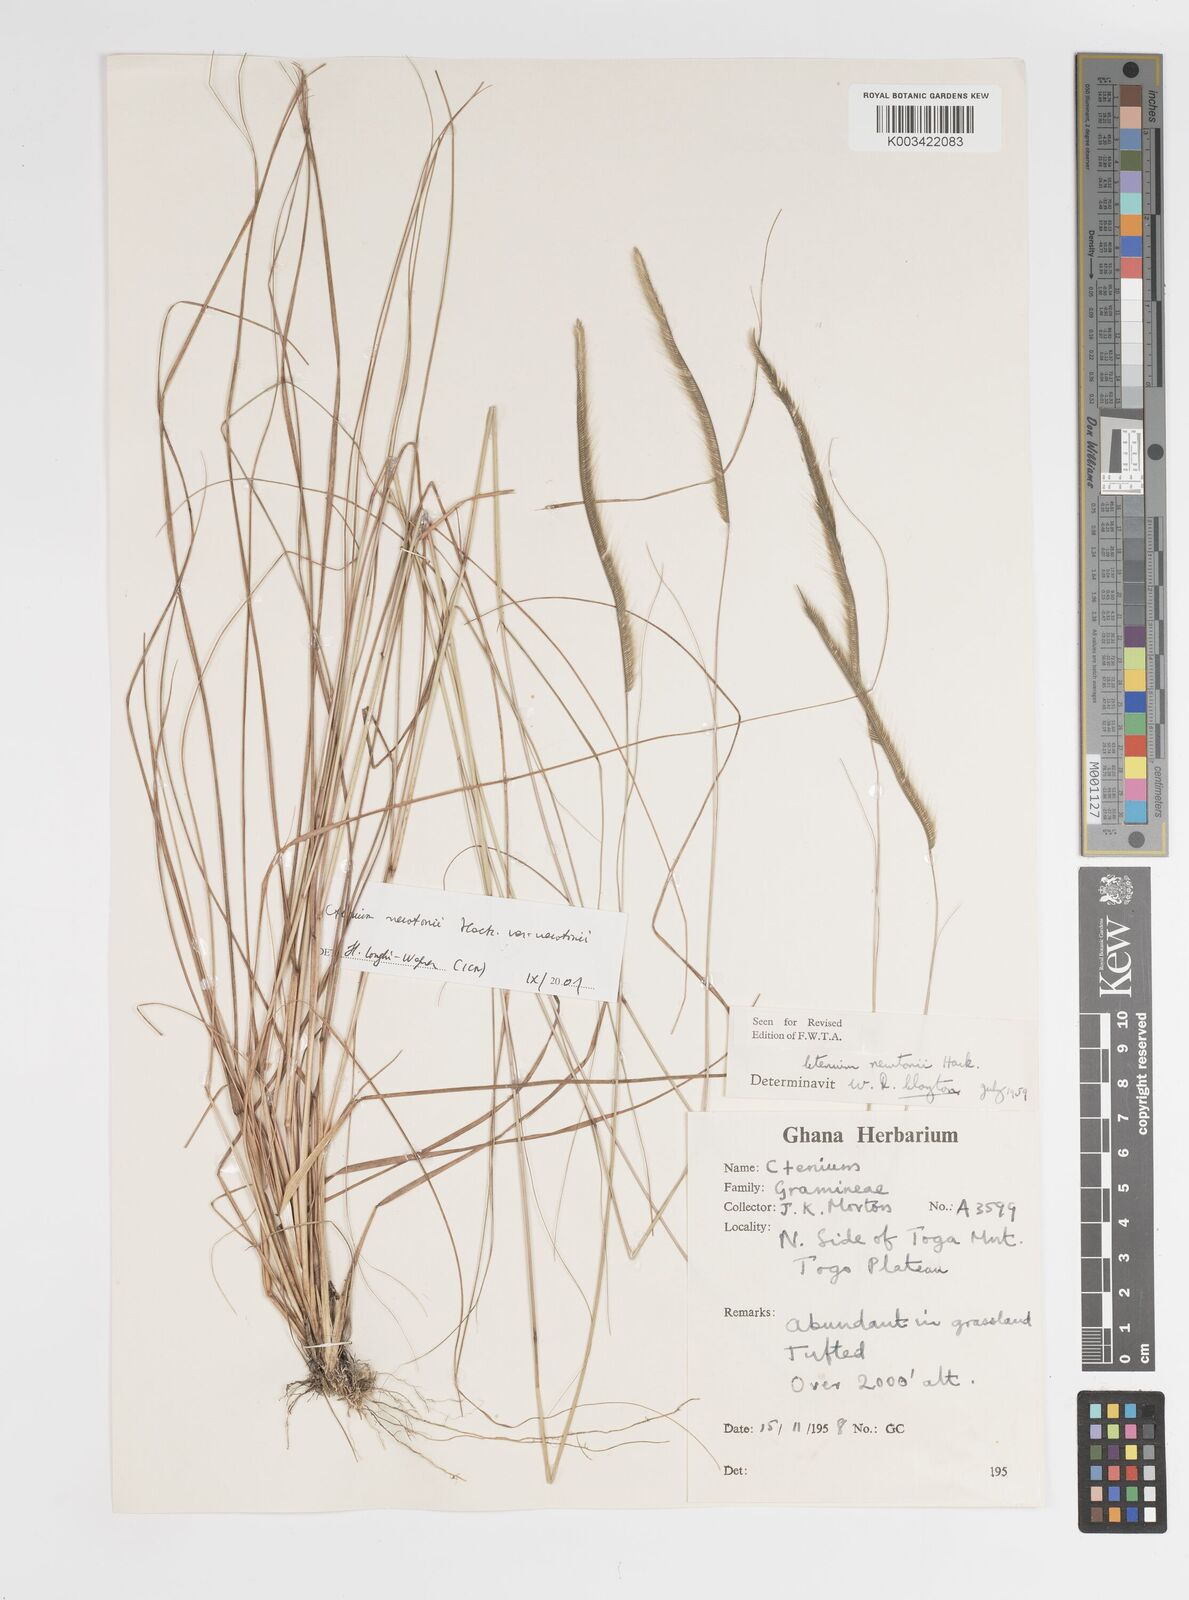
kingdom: Plantae
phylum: Tracheophyta
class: Liliopsida
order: Poales
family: Poaceae
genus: Ctenium
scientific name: Ctenium newtonii
